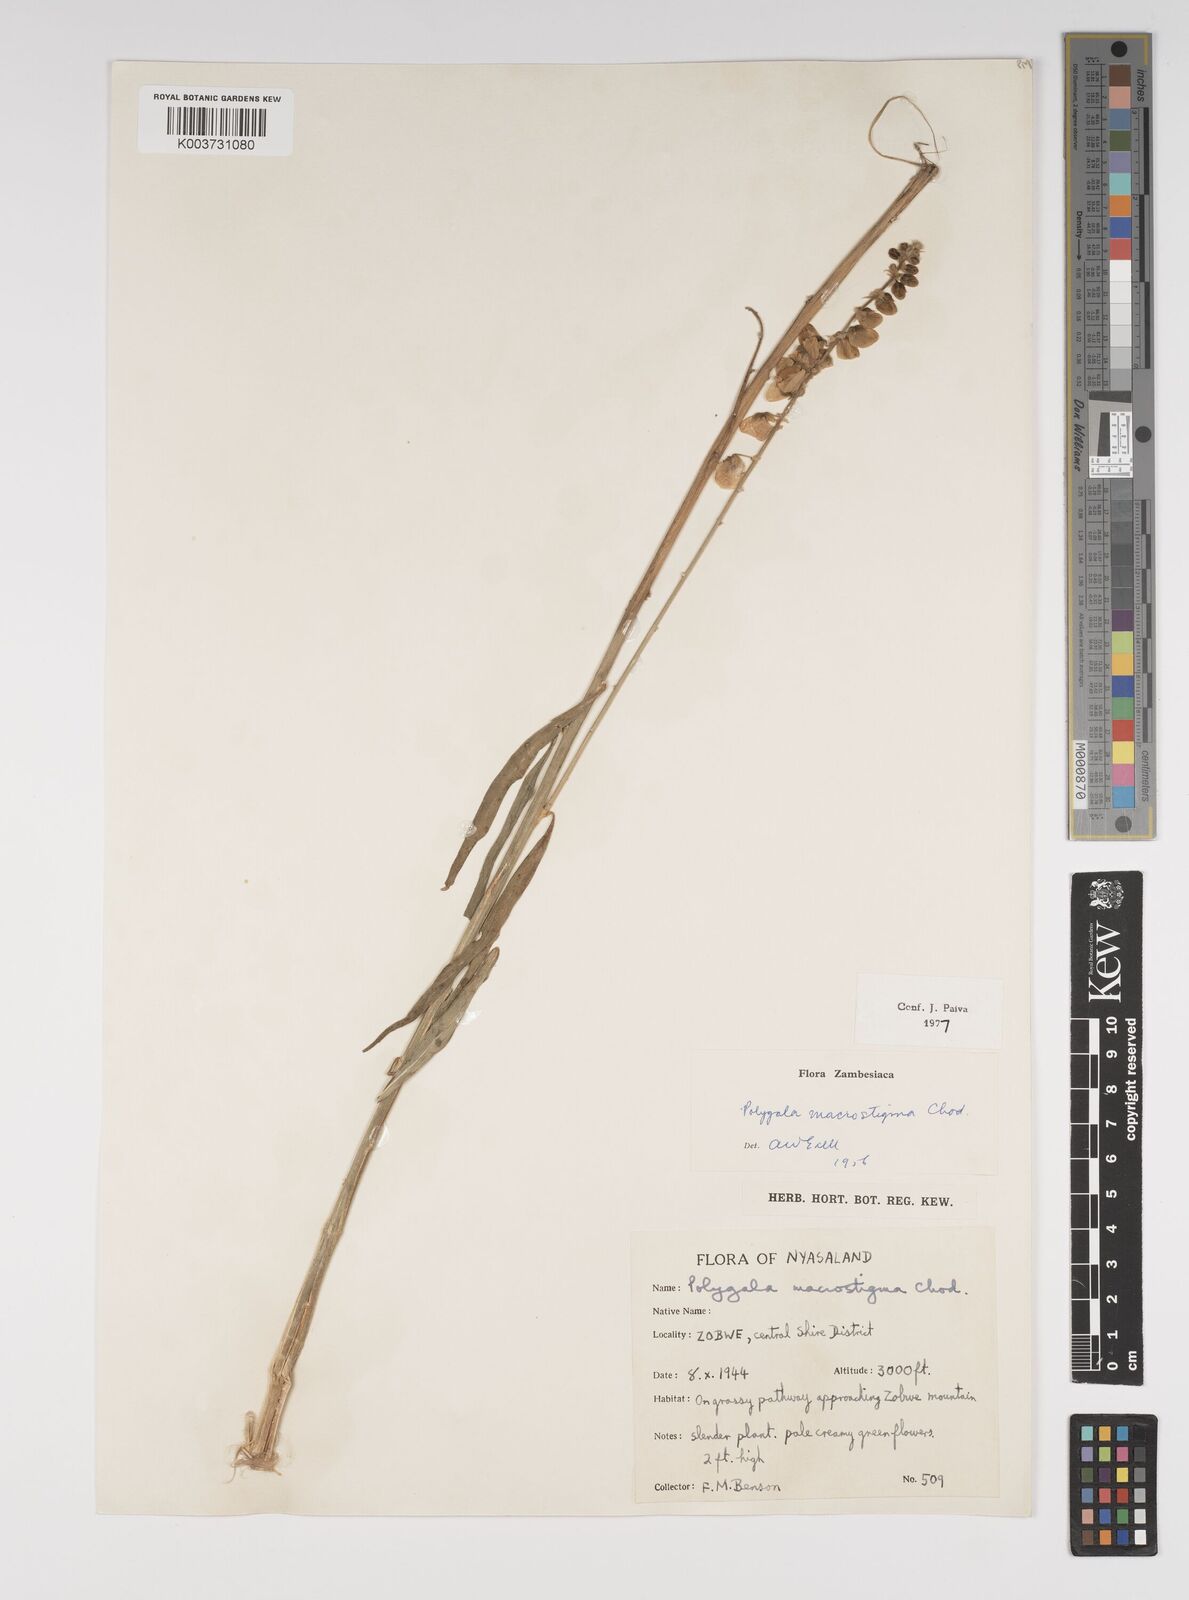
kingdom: Plantae
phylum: Tracheophyta
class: Magnoliopsida
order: Fabales
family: Polygalaceae
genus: Polygala
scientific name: Polygala macrostigma
